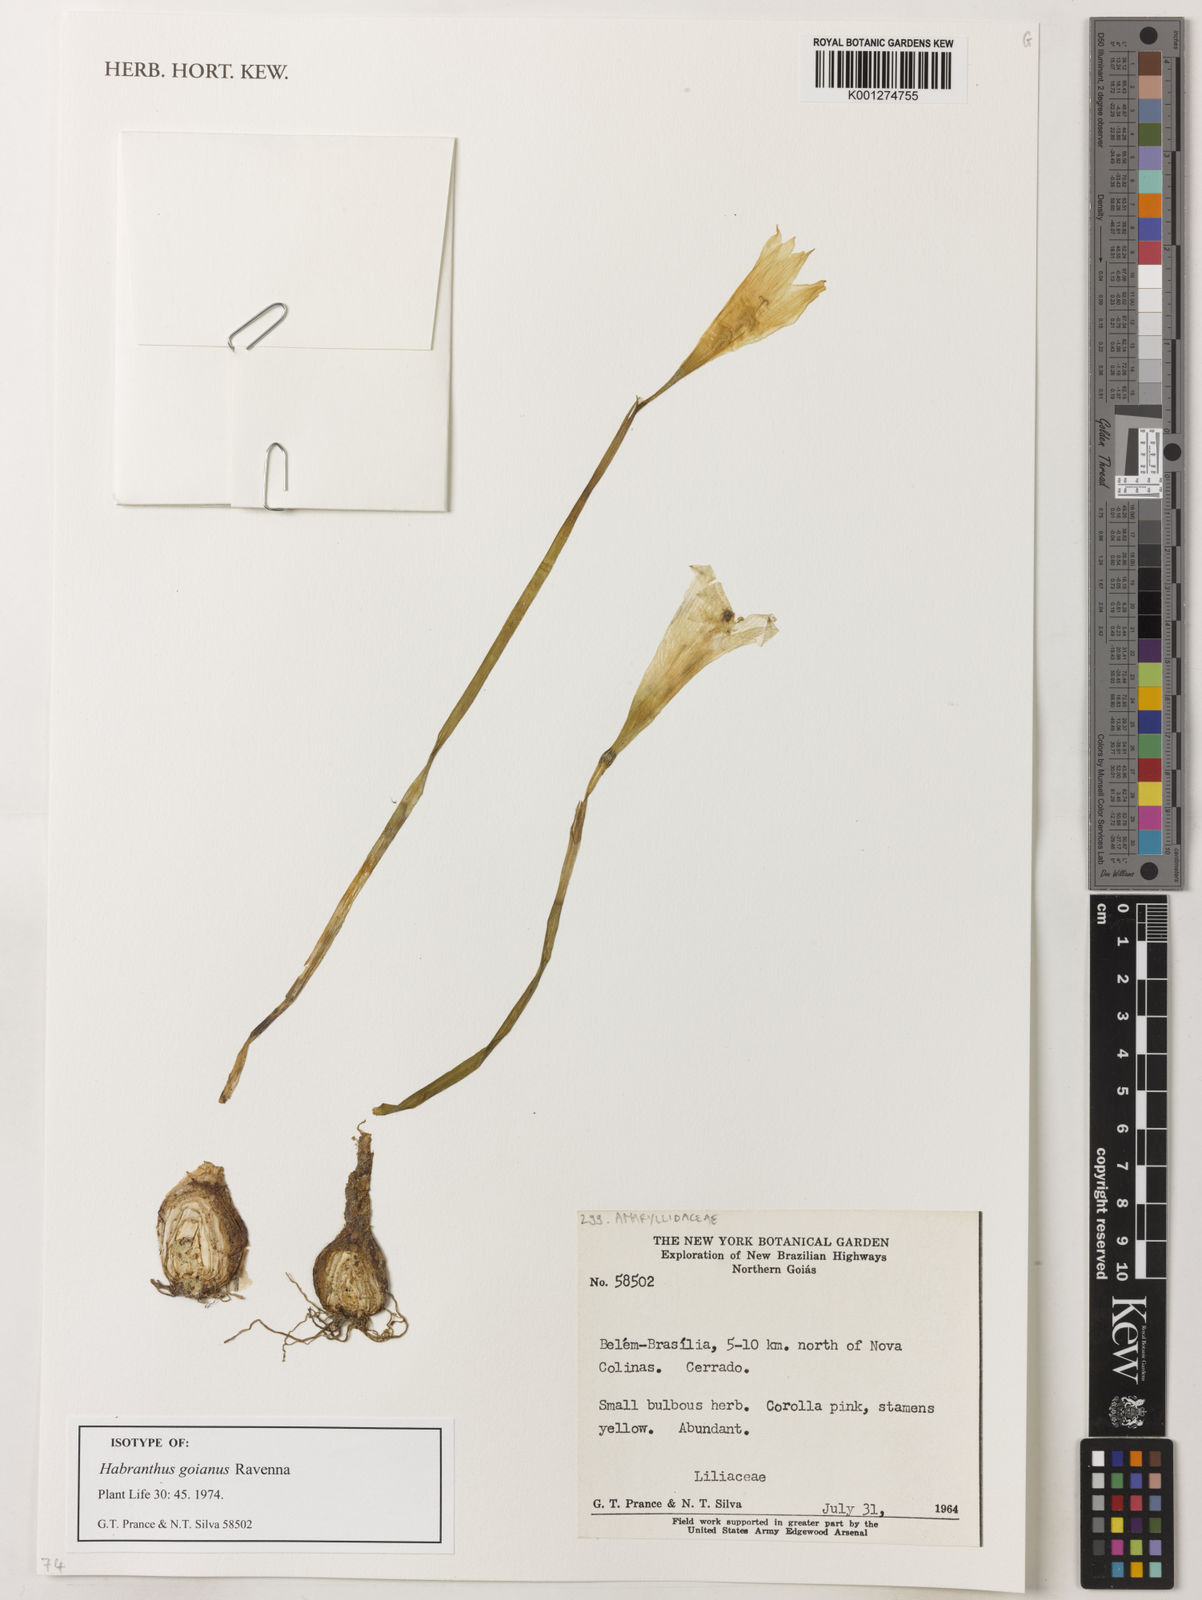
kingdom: Plantae
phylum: Tracheophyta
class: Liliopsida
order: Asparagales
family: Amaryllidaceae
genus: Zephyranthes
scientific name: Zephyranthes goiana
